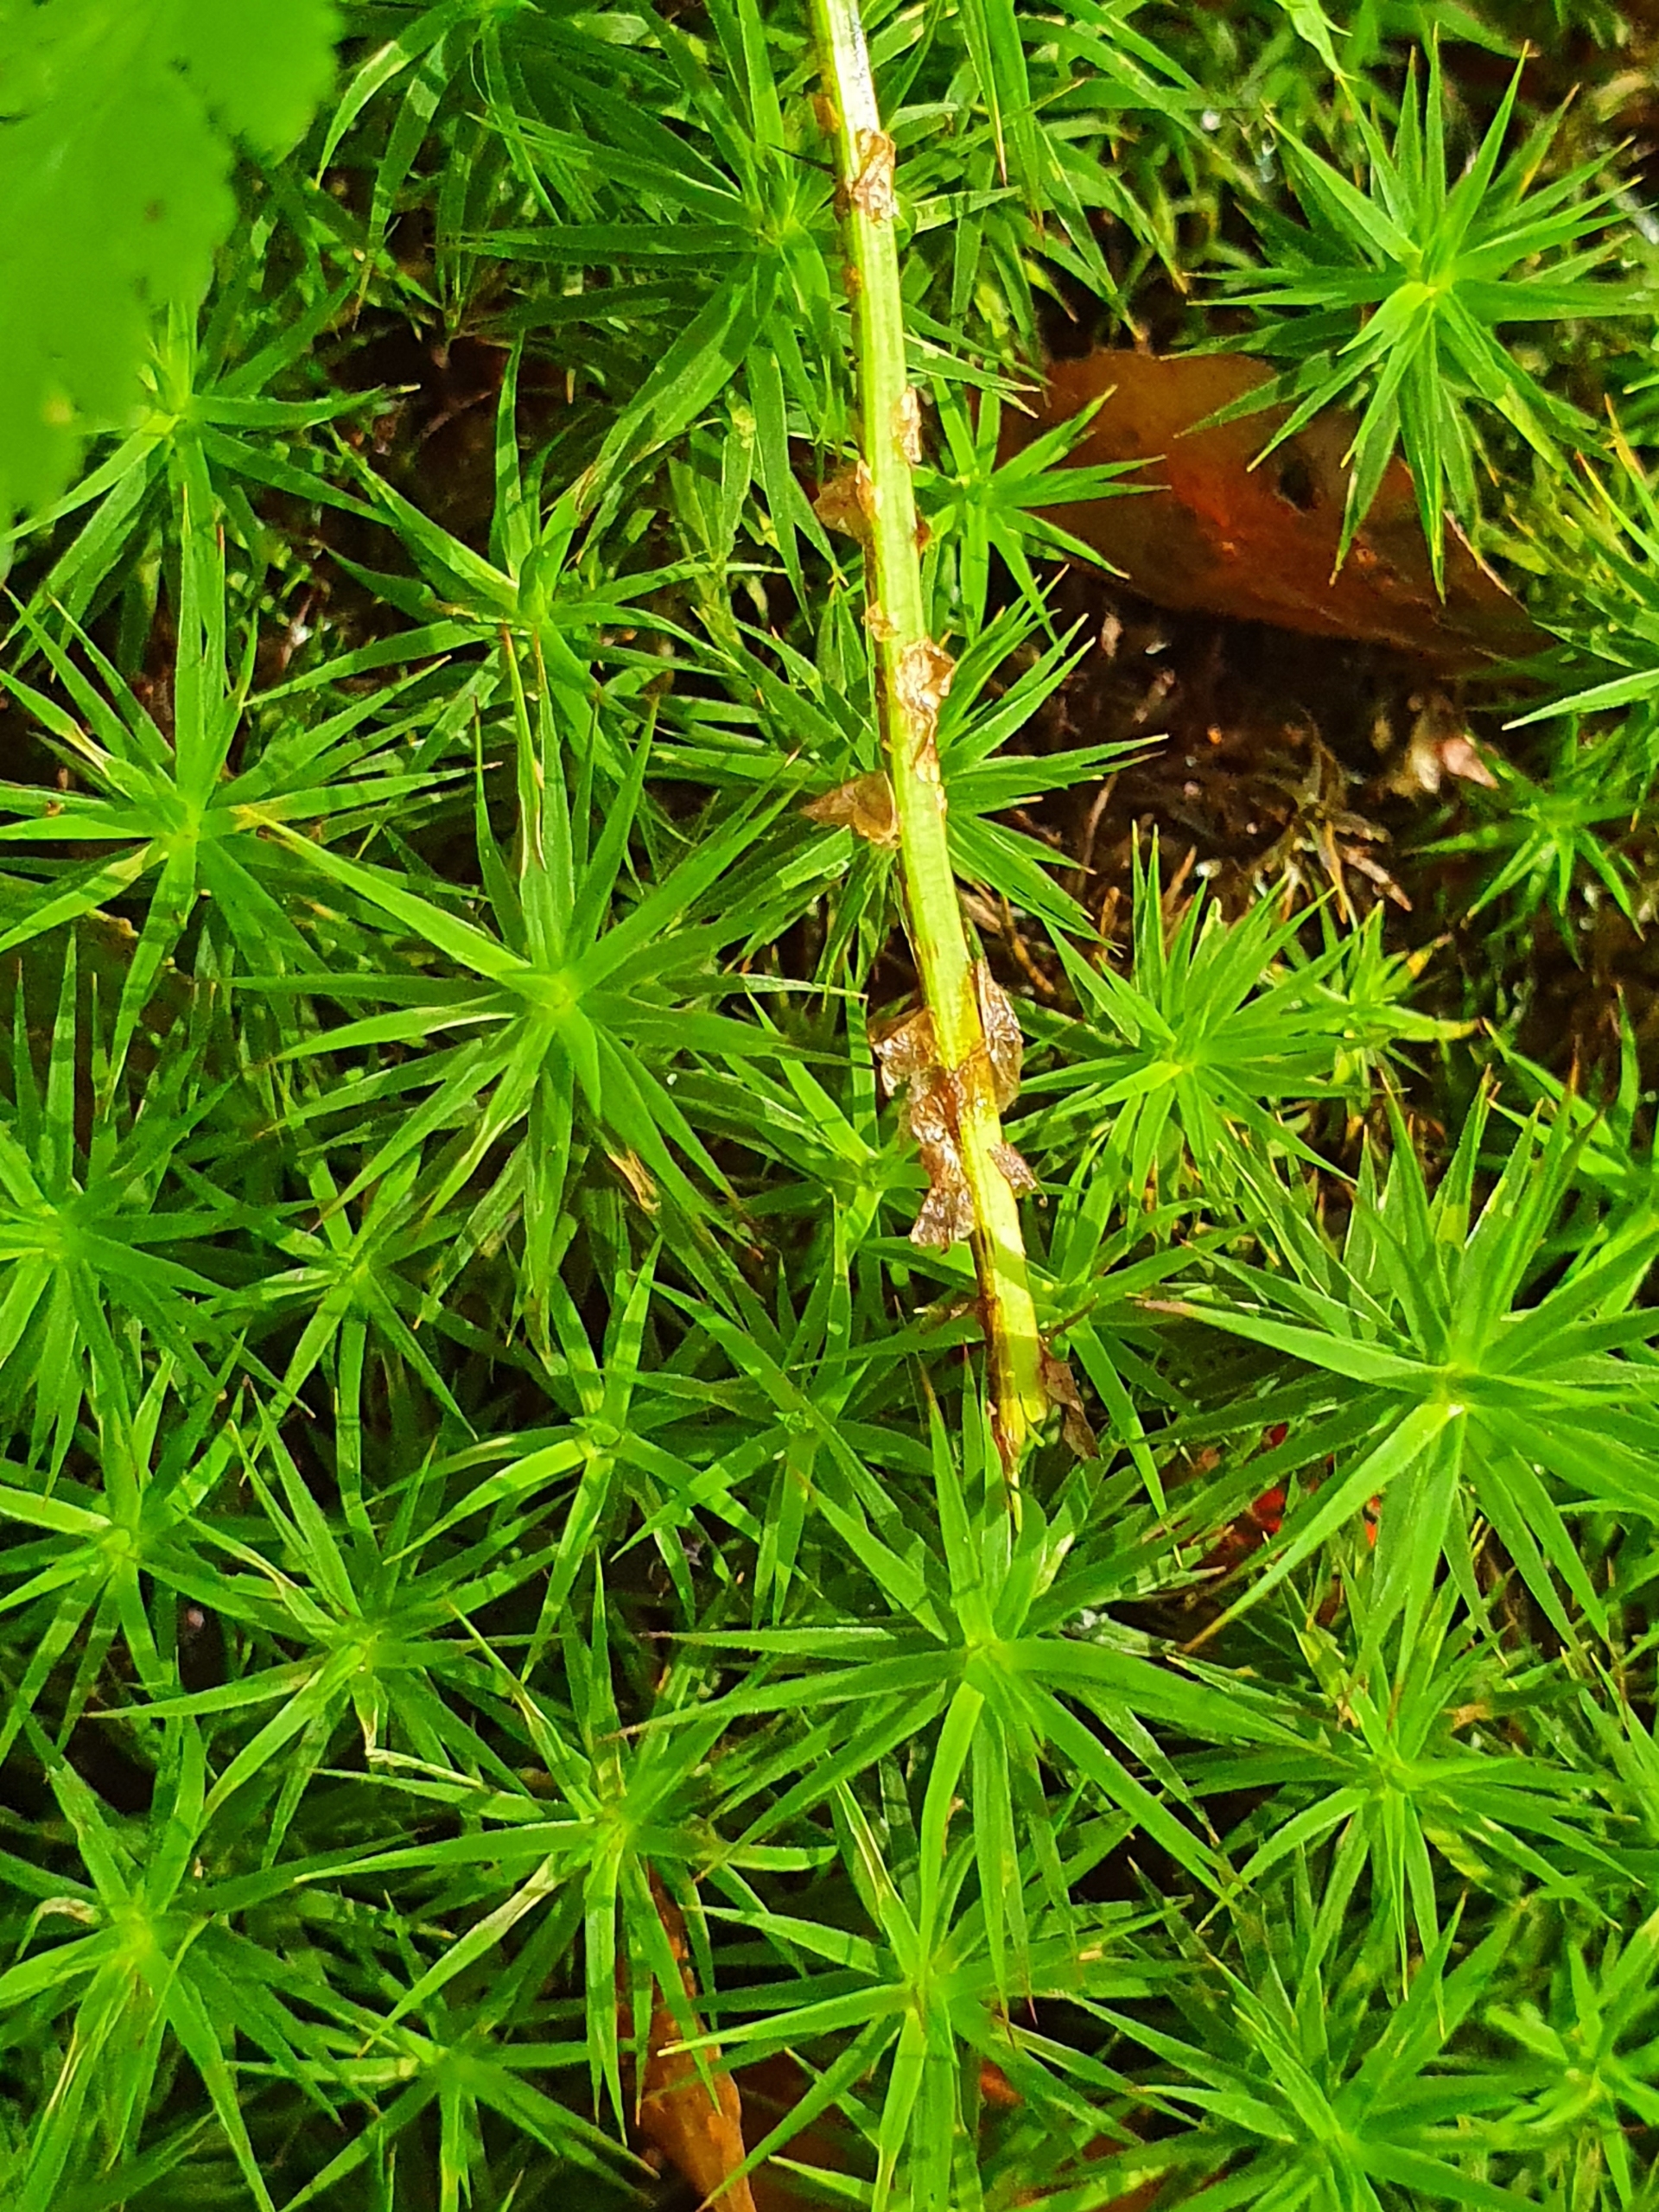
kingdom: Plantae
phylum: Tracheophyta
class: Polypodiopsida
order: Polypodiales
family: Dryopteridaceae
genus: Dryopteris
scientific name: Dryopteris carthusiana
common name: Smalbladet mangeløv
